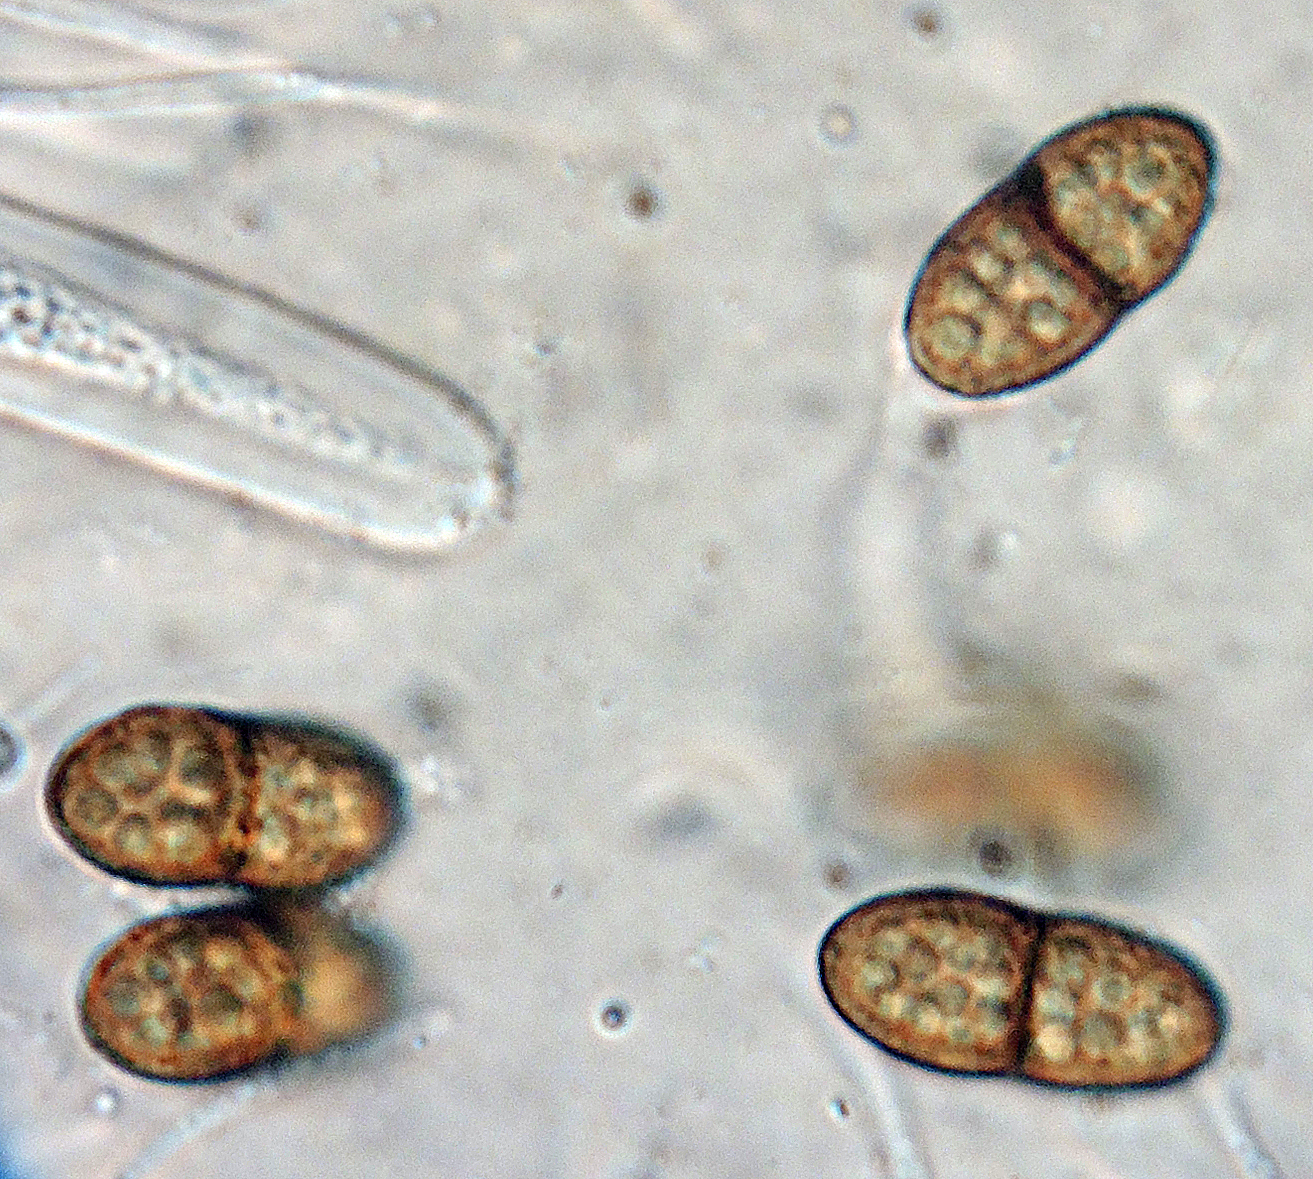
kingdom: Fungi
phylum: Ascomycota
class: Dothideomycetes
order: Pleosporales
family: Didymosphaeriaceae
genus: Didymosphaeria
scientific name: Didymosphaeria
